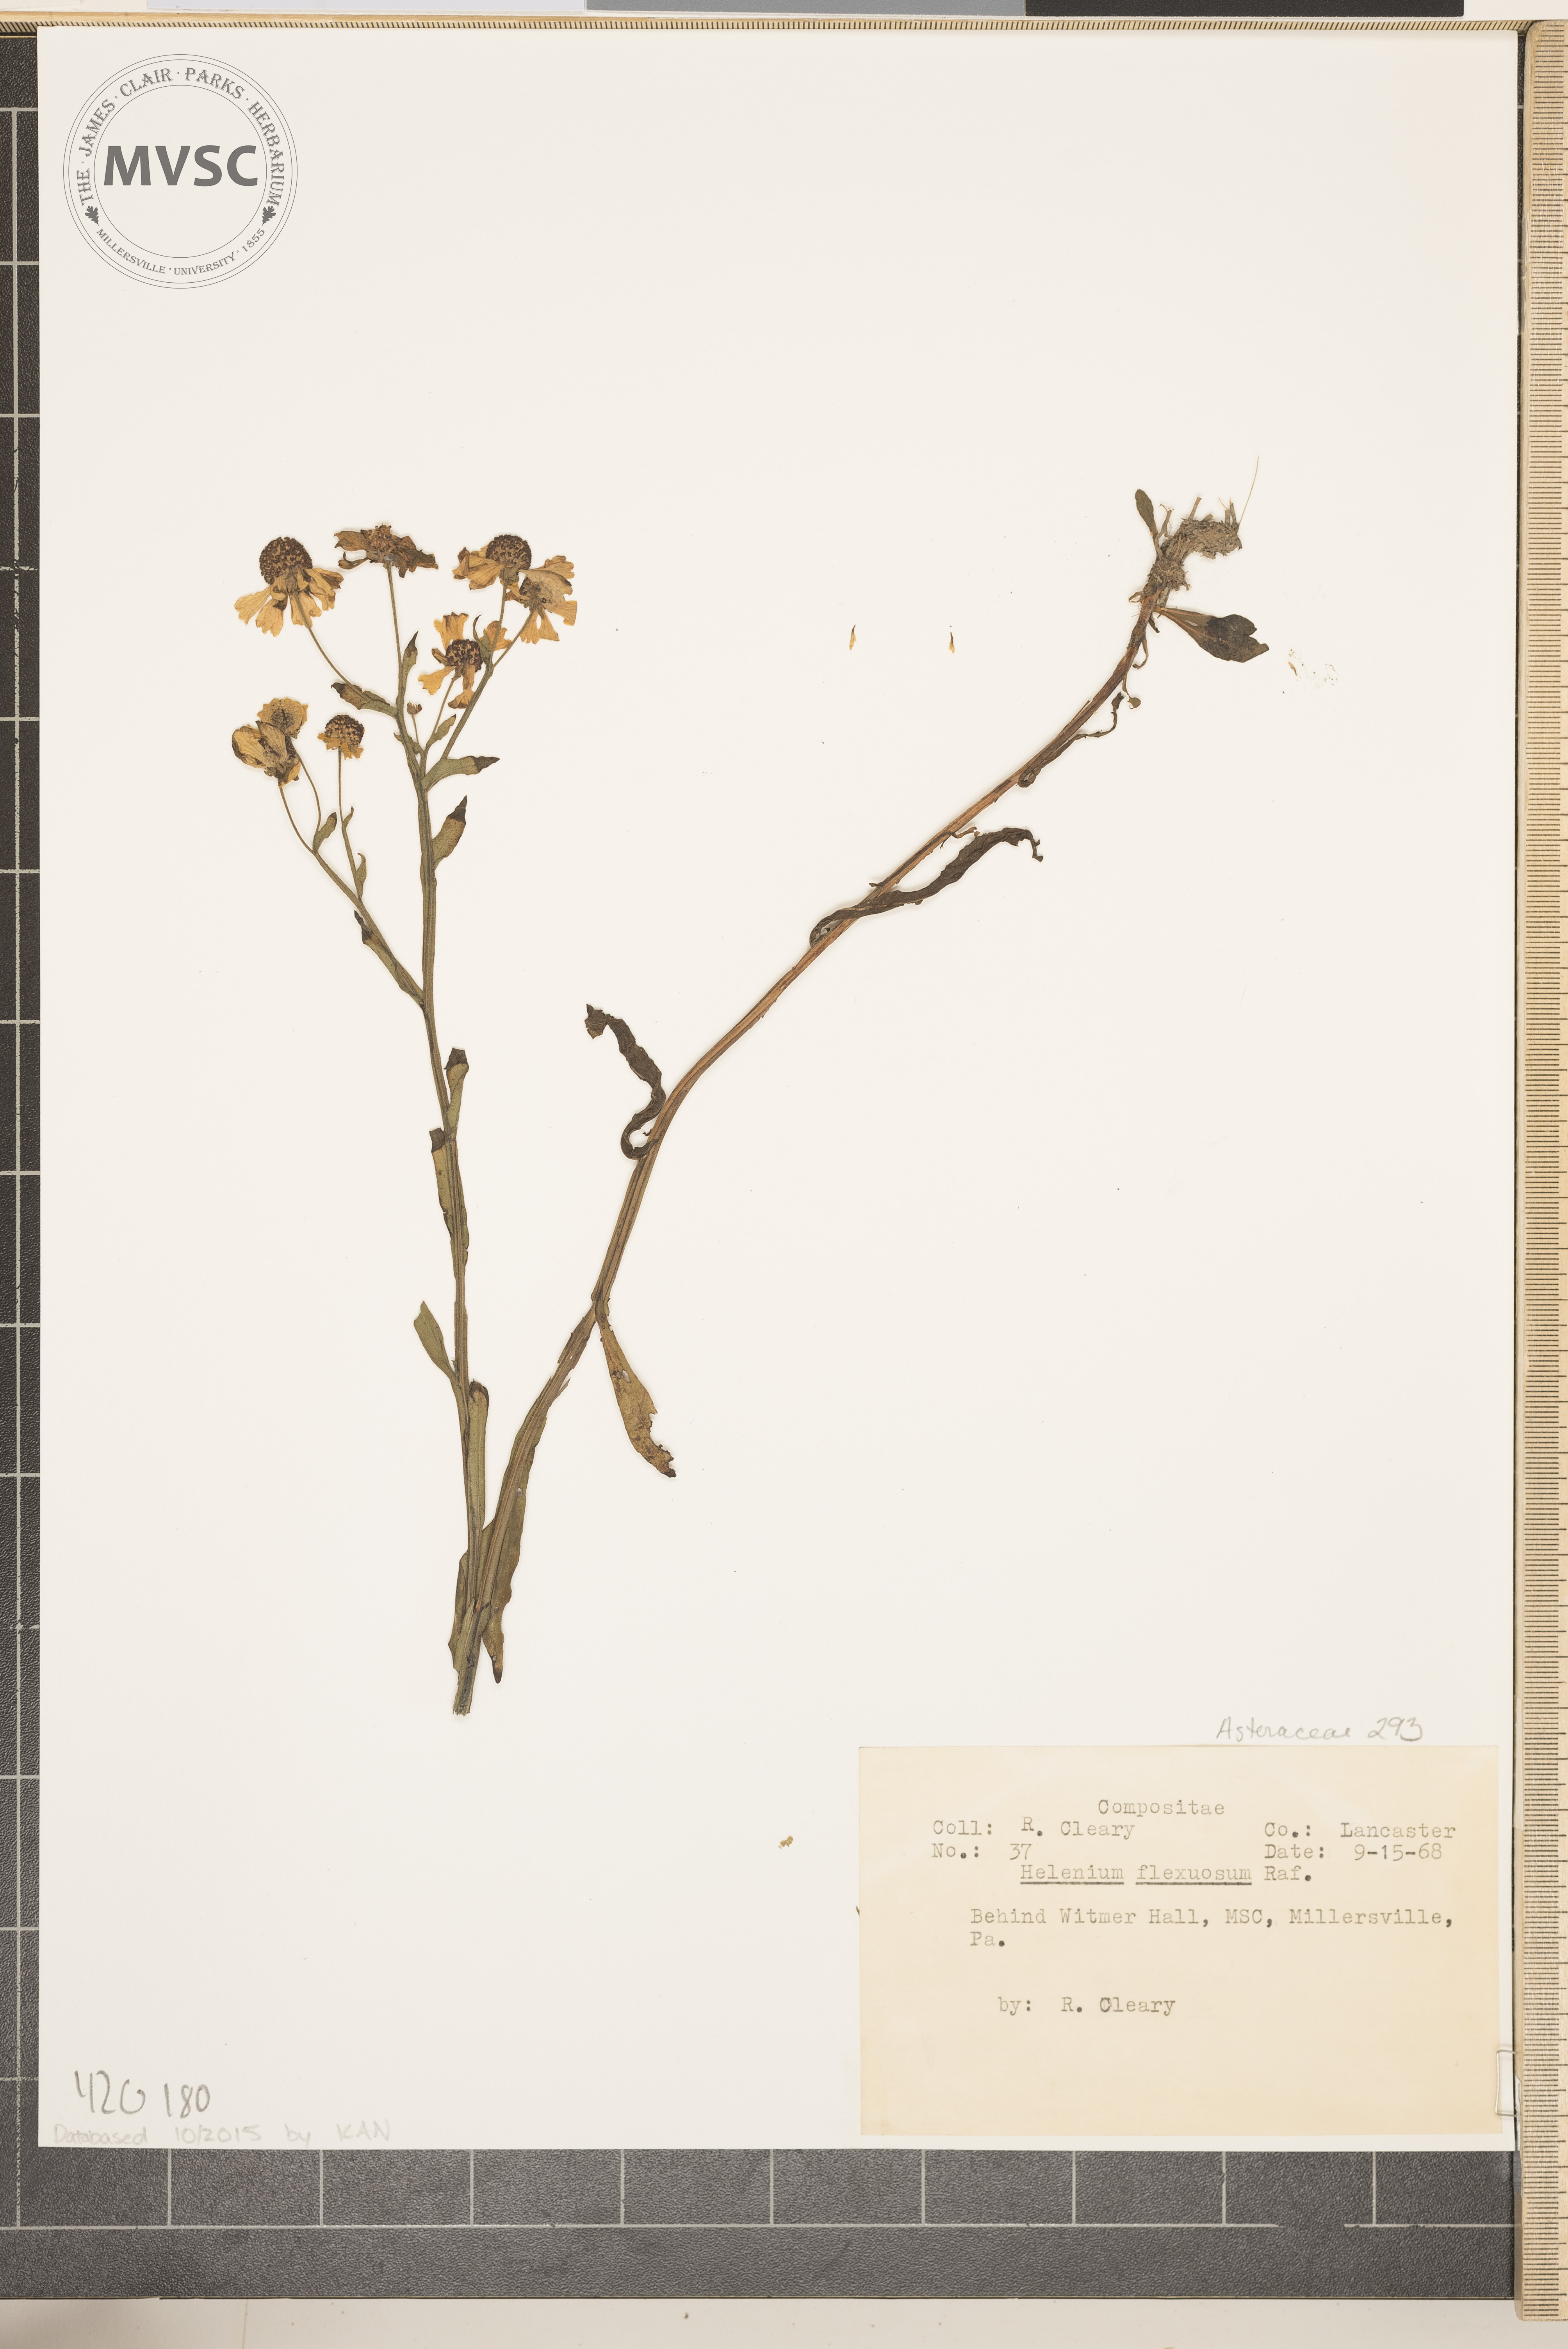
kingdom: Plantae
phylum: Tracheophyta
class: Magnoliopsida
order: Asterales
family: Asteraceae
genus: Helenium
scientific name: Helenium flexuosum
